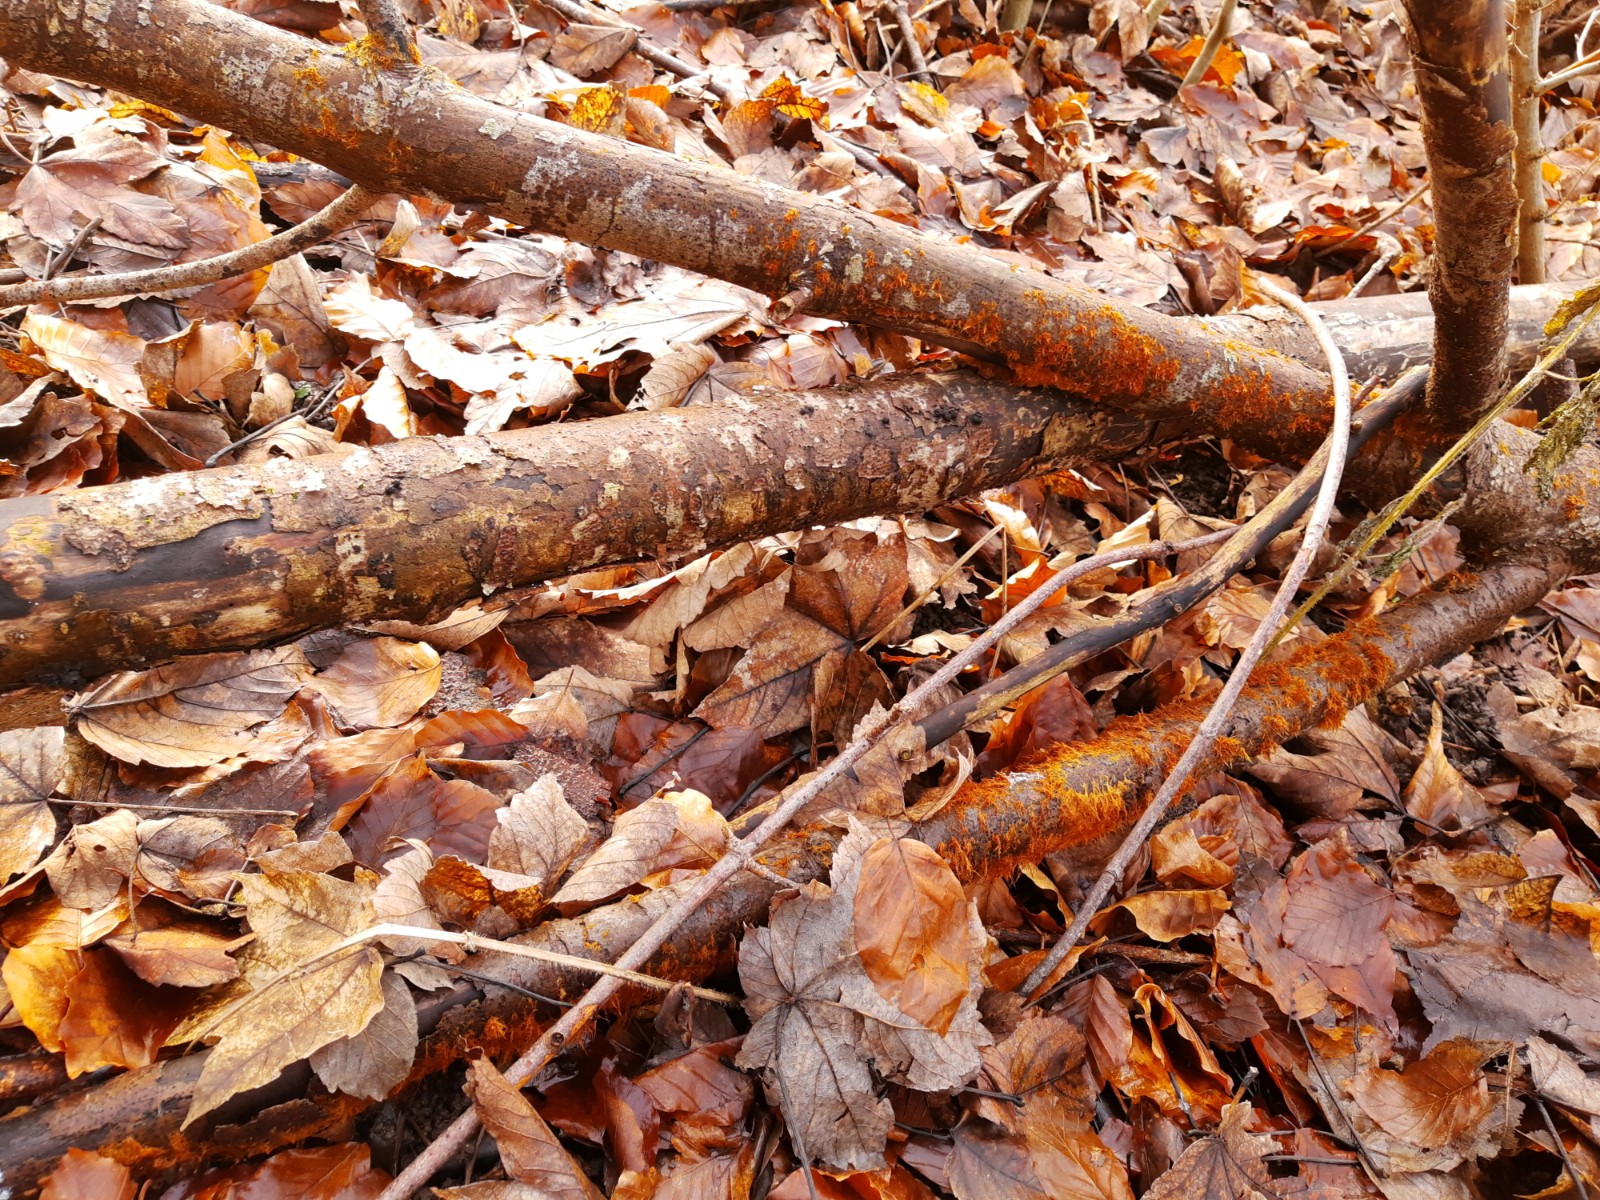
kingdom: Fungi
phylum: Basidiomycota
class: Agaricomycetes
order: Agaricales
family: Psathyrellaceae
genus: Ozonium
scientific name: Ozonium
